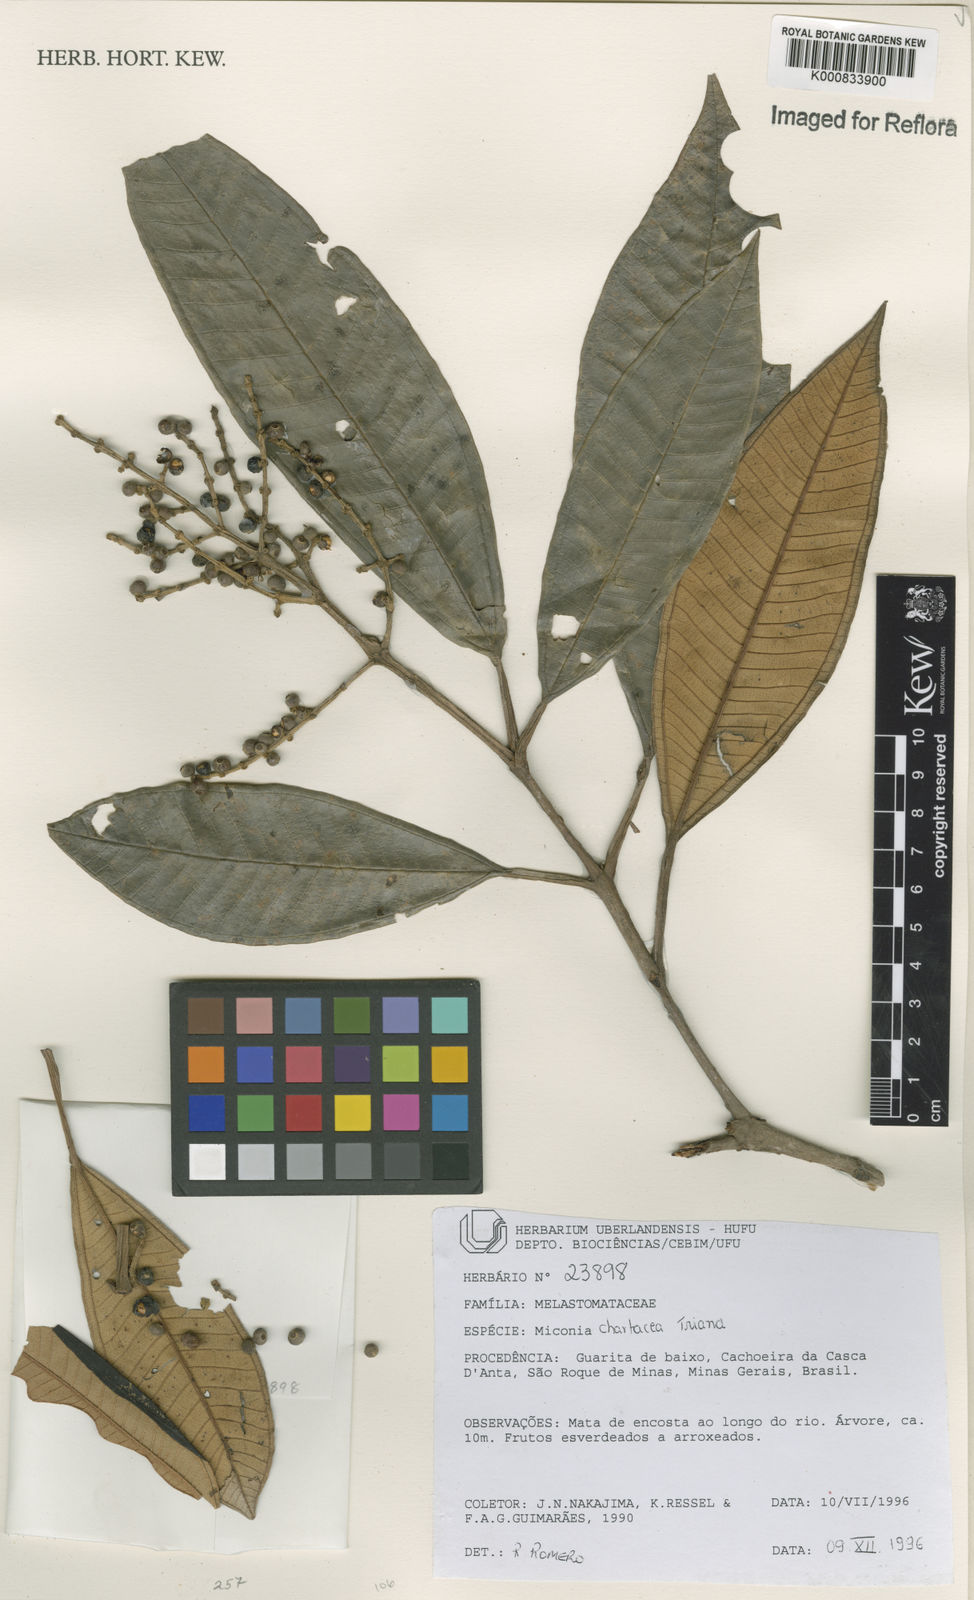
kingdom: Plantae
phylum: Tracheophyta
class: Magnoliopsida
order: Myrtales
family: Melastomataceae
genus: Miconia
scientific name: Miconia chartacea
